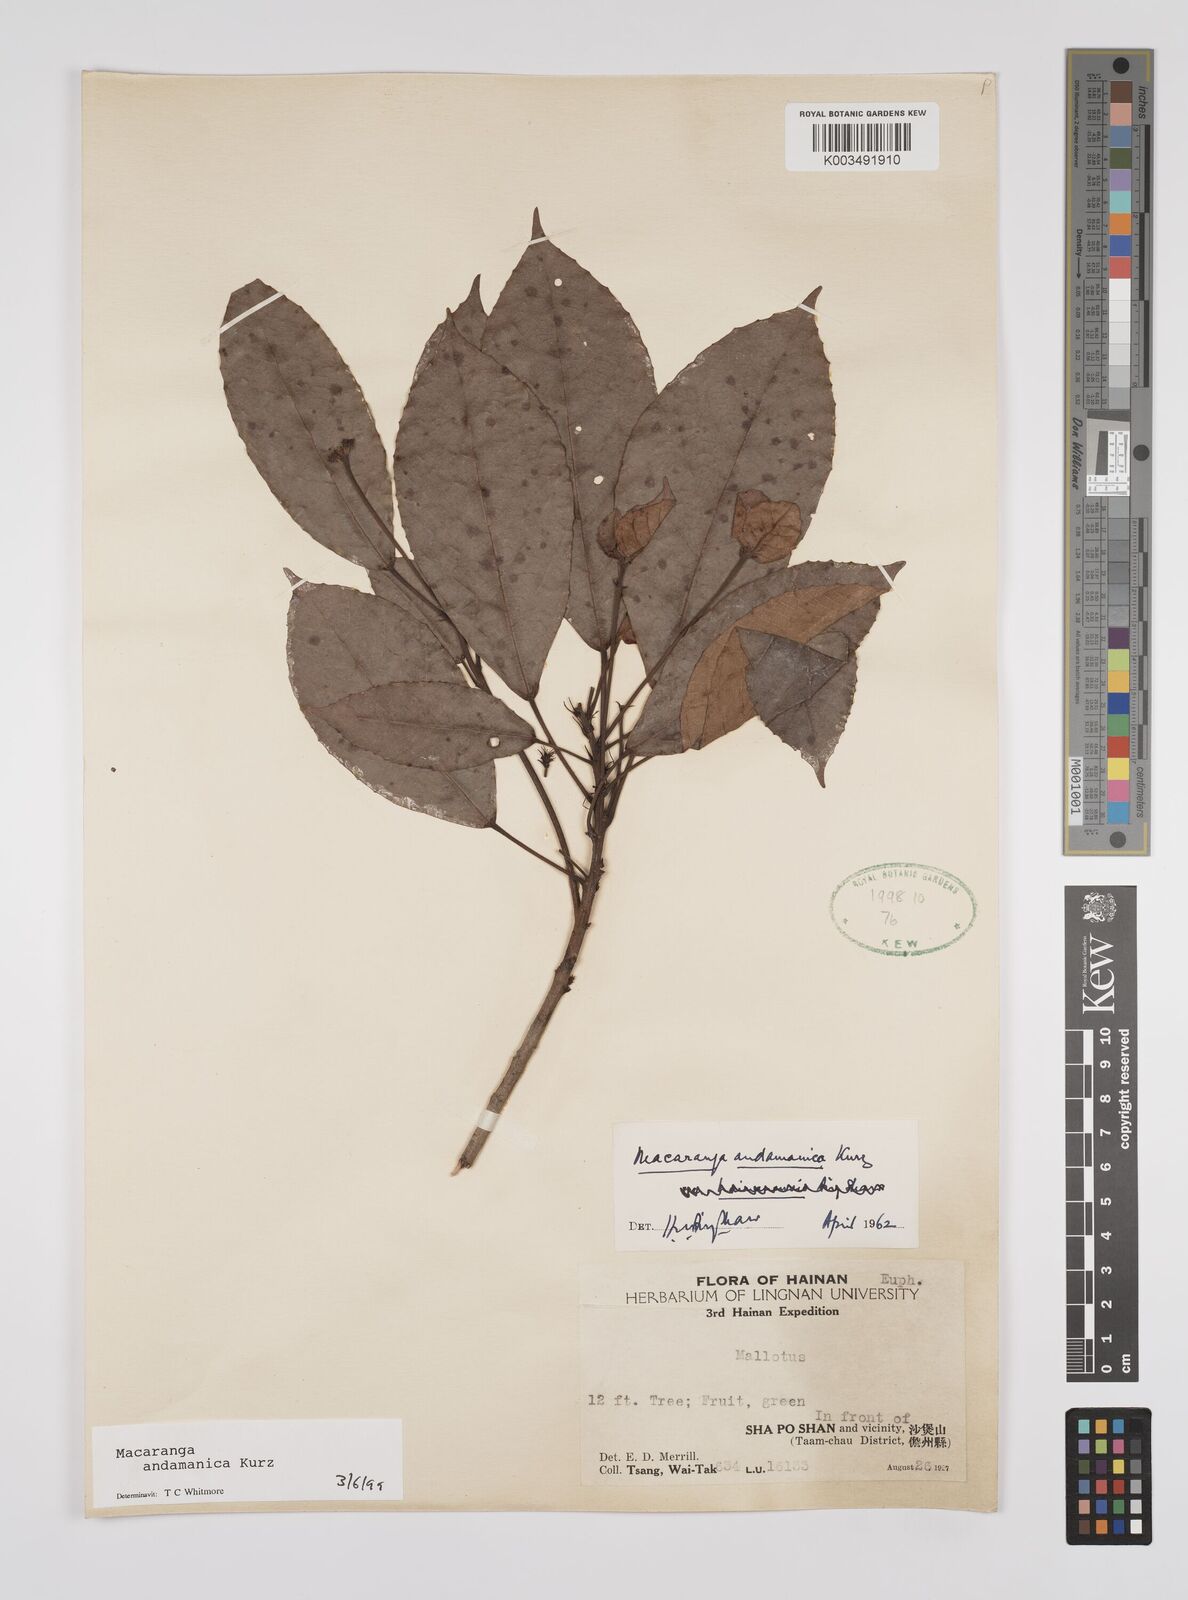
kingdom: Plantae
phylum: Tracheophyta
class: Magnoliopsida
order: Malpighiales
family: Euphorbiaceae
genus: Macaranga
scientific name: Macaranga andamanica
